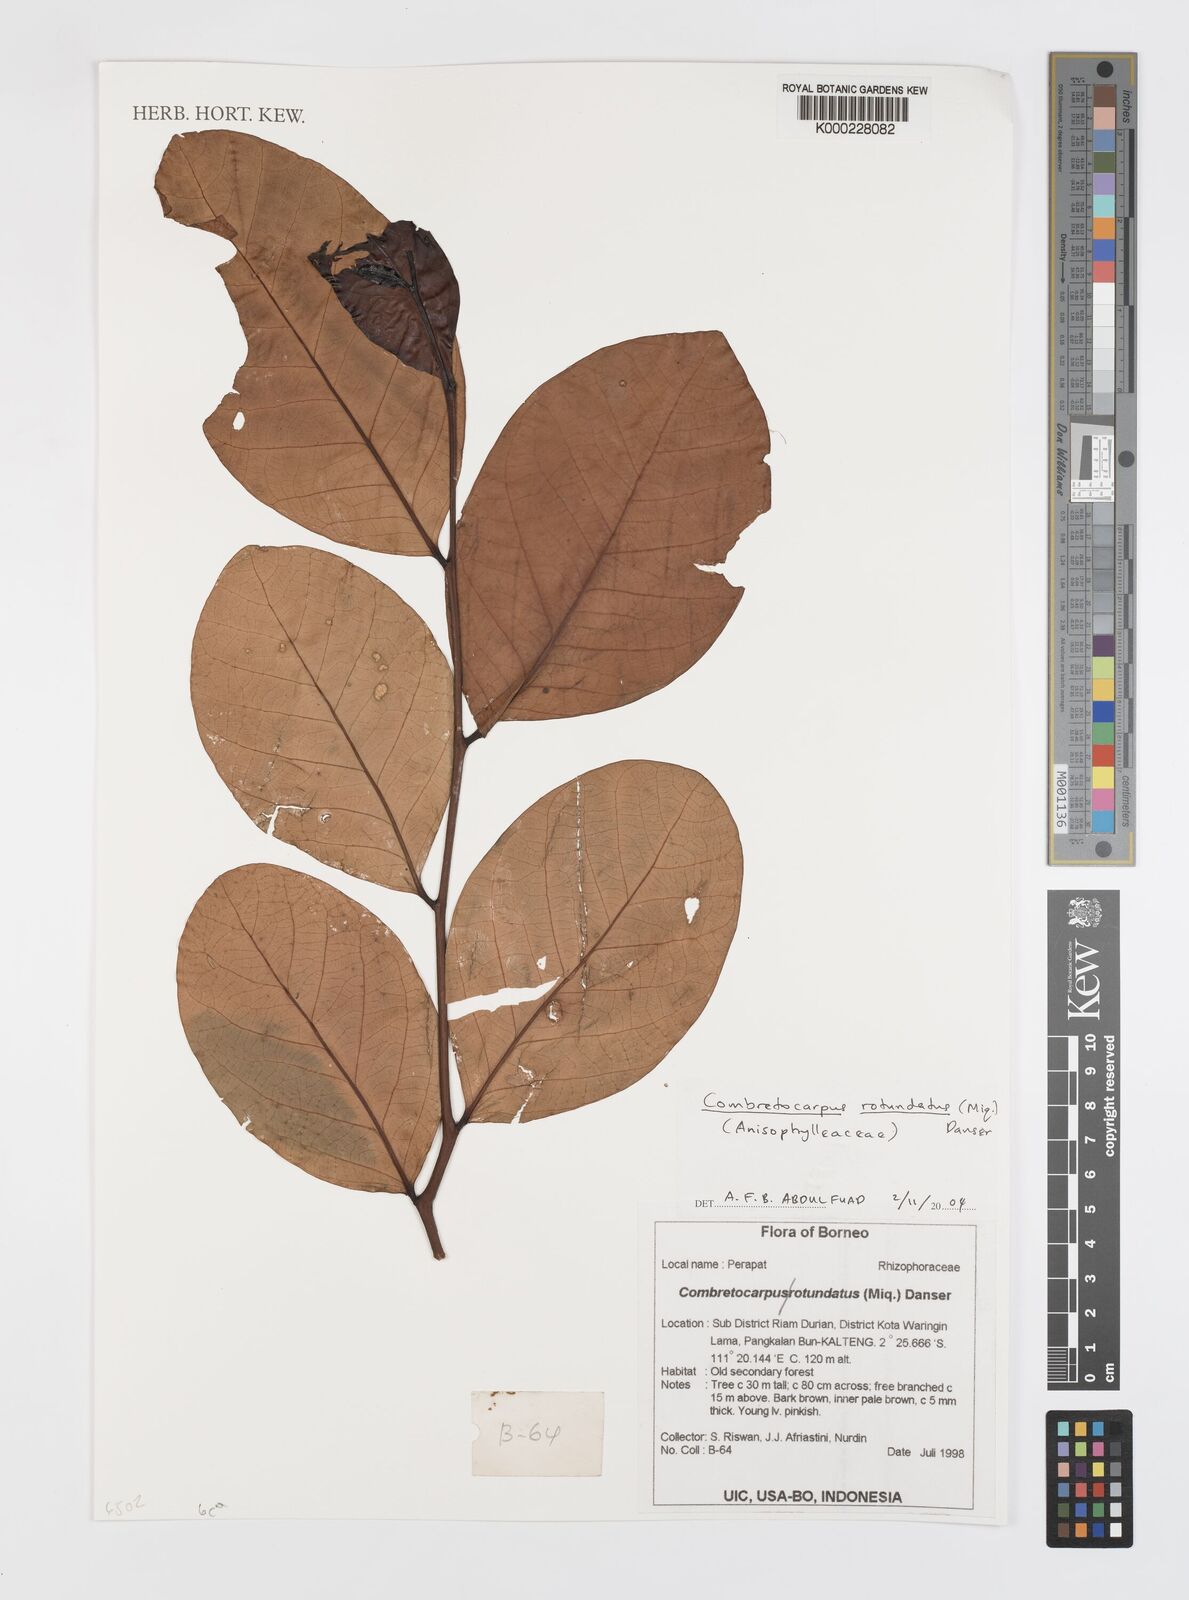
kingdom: Plantae
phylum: Tracheophyta
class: Magnoliopsida
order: Cucurbitales
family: Anisophylleaceae
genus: Combretocarpus
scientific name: Combretocarpus rotundatus
